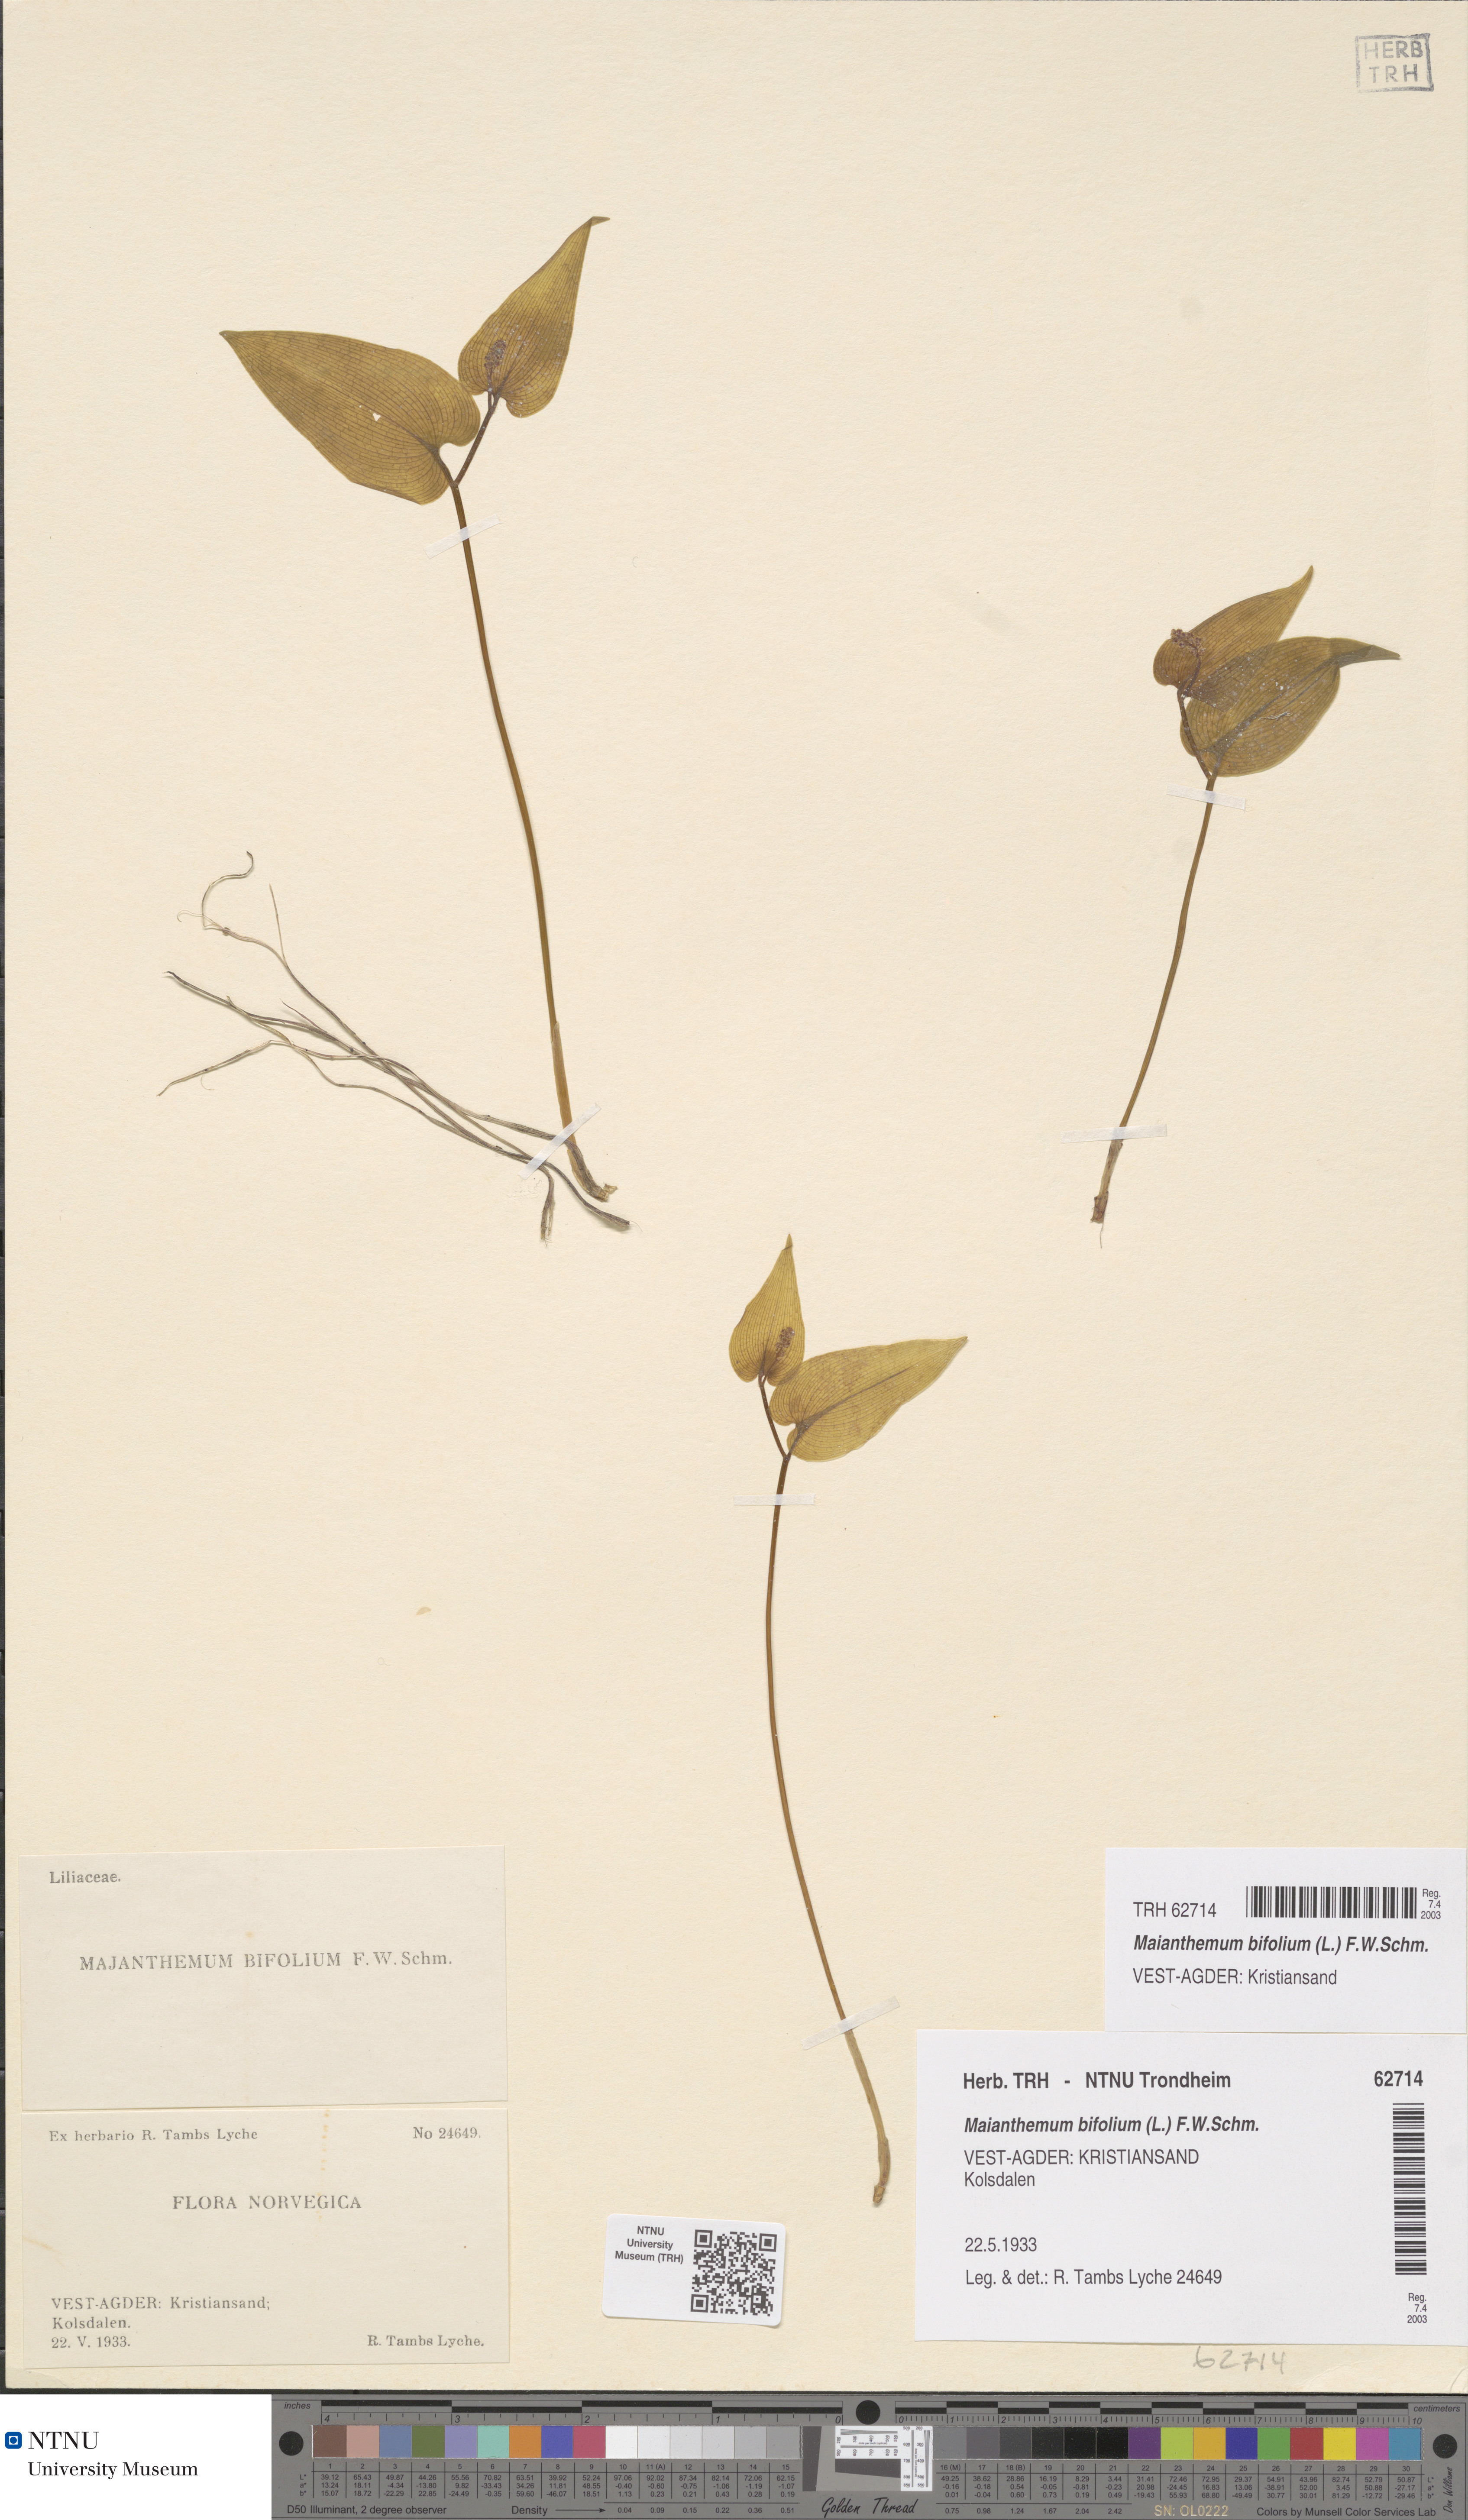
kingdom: Plantae
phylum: Tracheophyta
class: Liliopsida
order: Asparagales
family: Asparagaceae
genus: Maianthemum
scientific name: Maianthemum bifolium
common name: May lily
